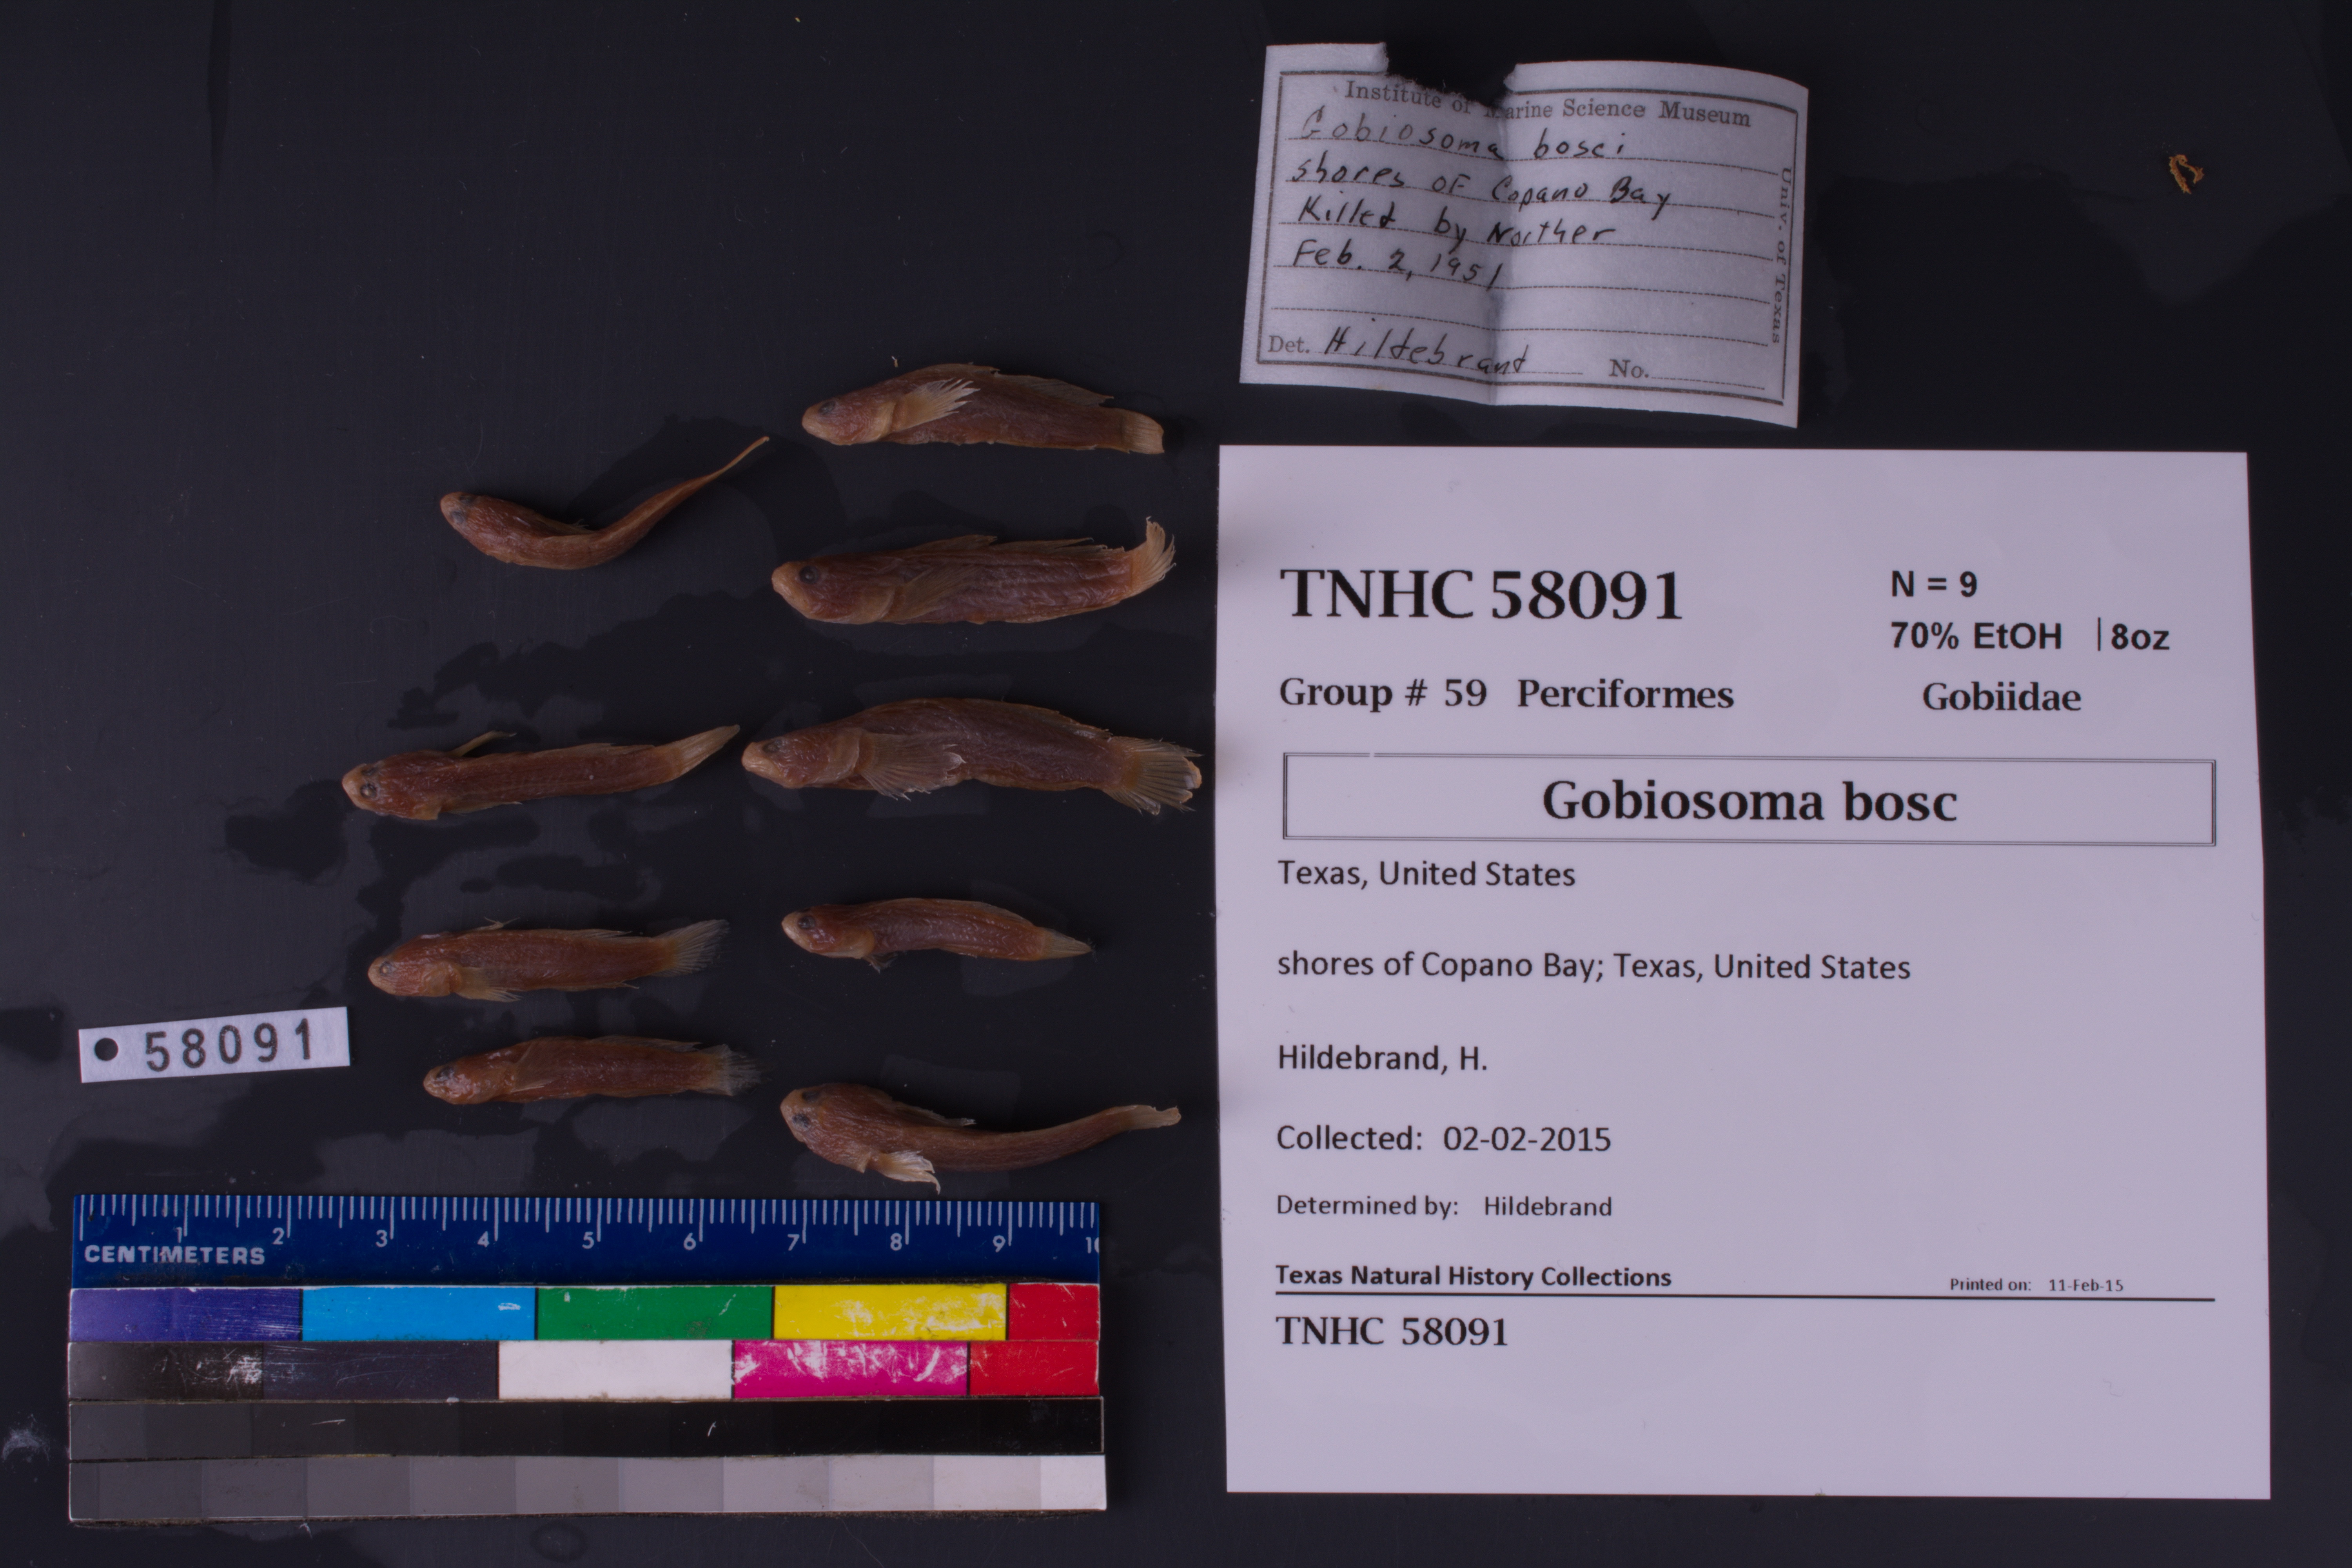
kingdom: Animalia
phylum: Chordata
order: Perciformes
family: Gobiidae
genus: Gobiosoma
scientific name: Gobiosoma bosc
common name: Naked goby
